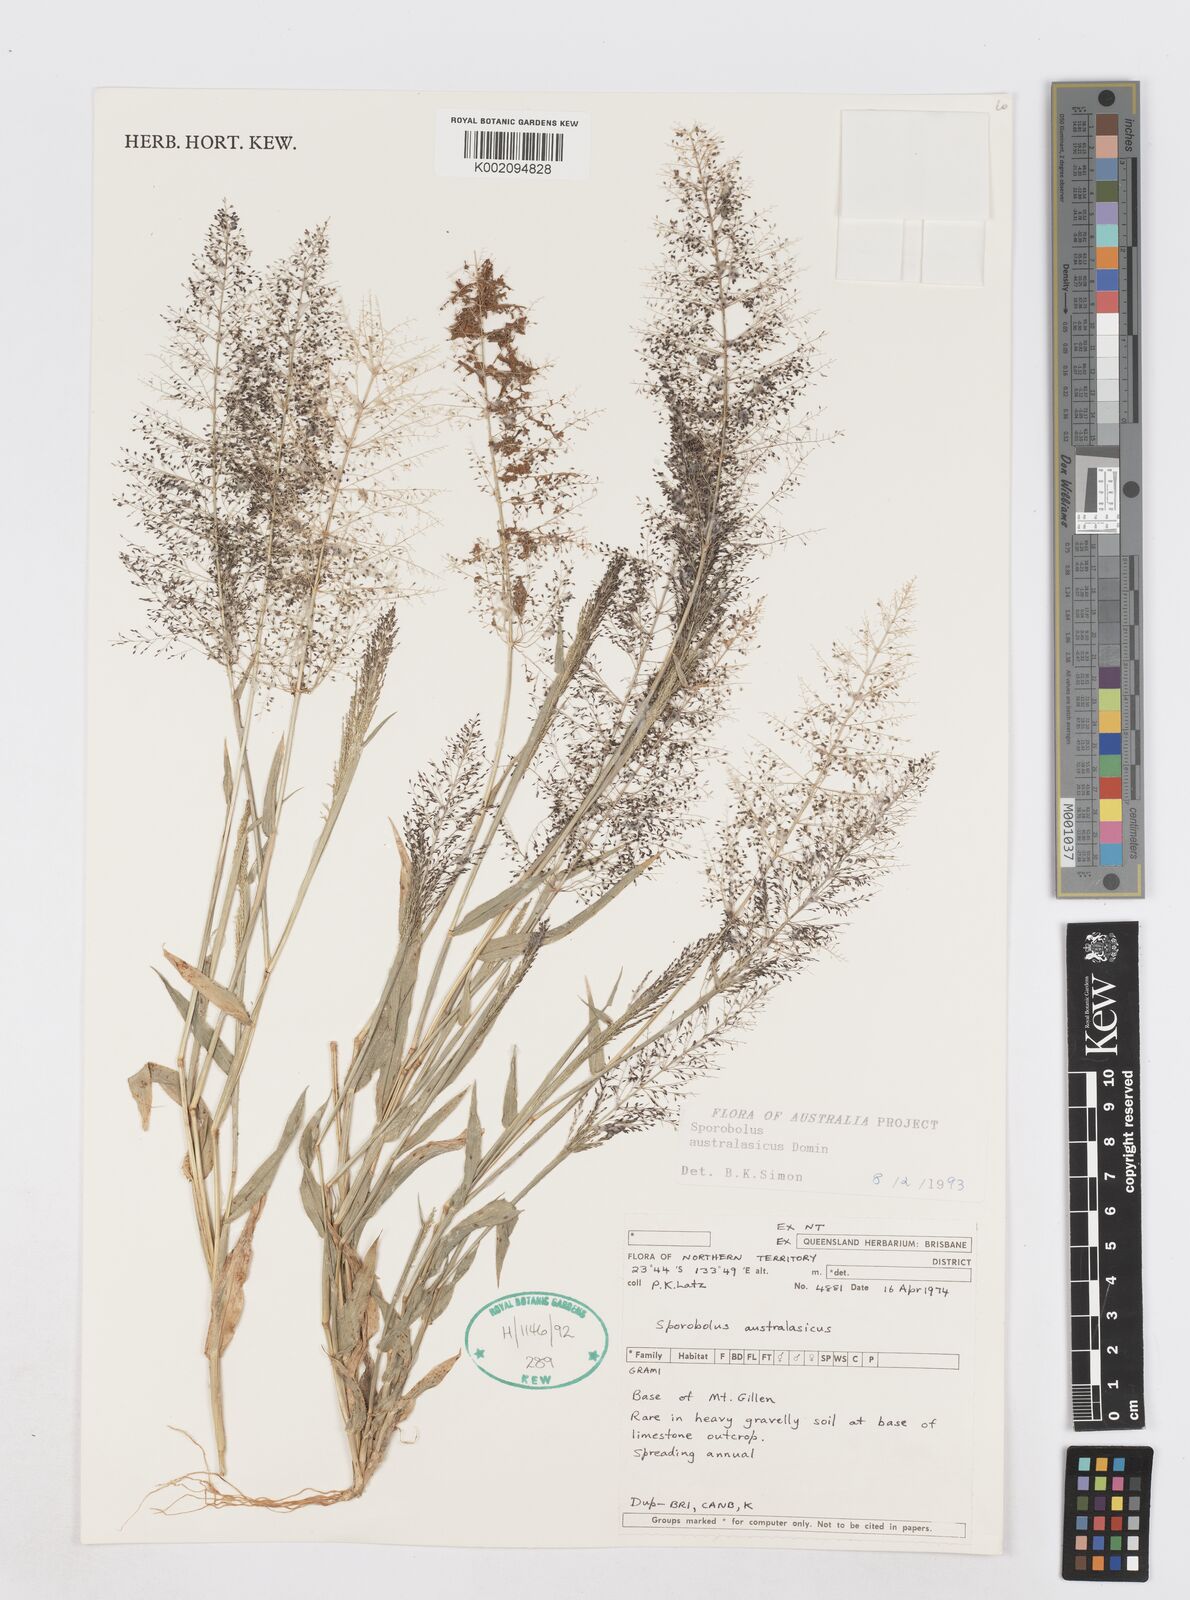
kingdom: Plantae
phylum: Tracheophyta
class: Liliopsida
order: Poales
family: Poaceae
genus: Sporobolus
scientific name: Sporobolus australasicus
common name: Australian dropseed
